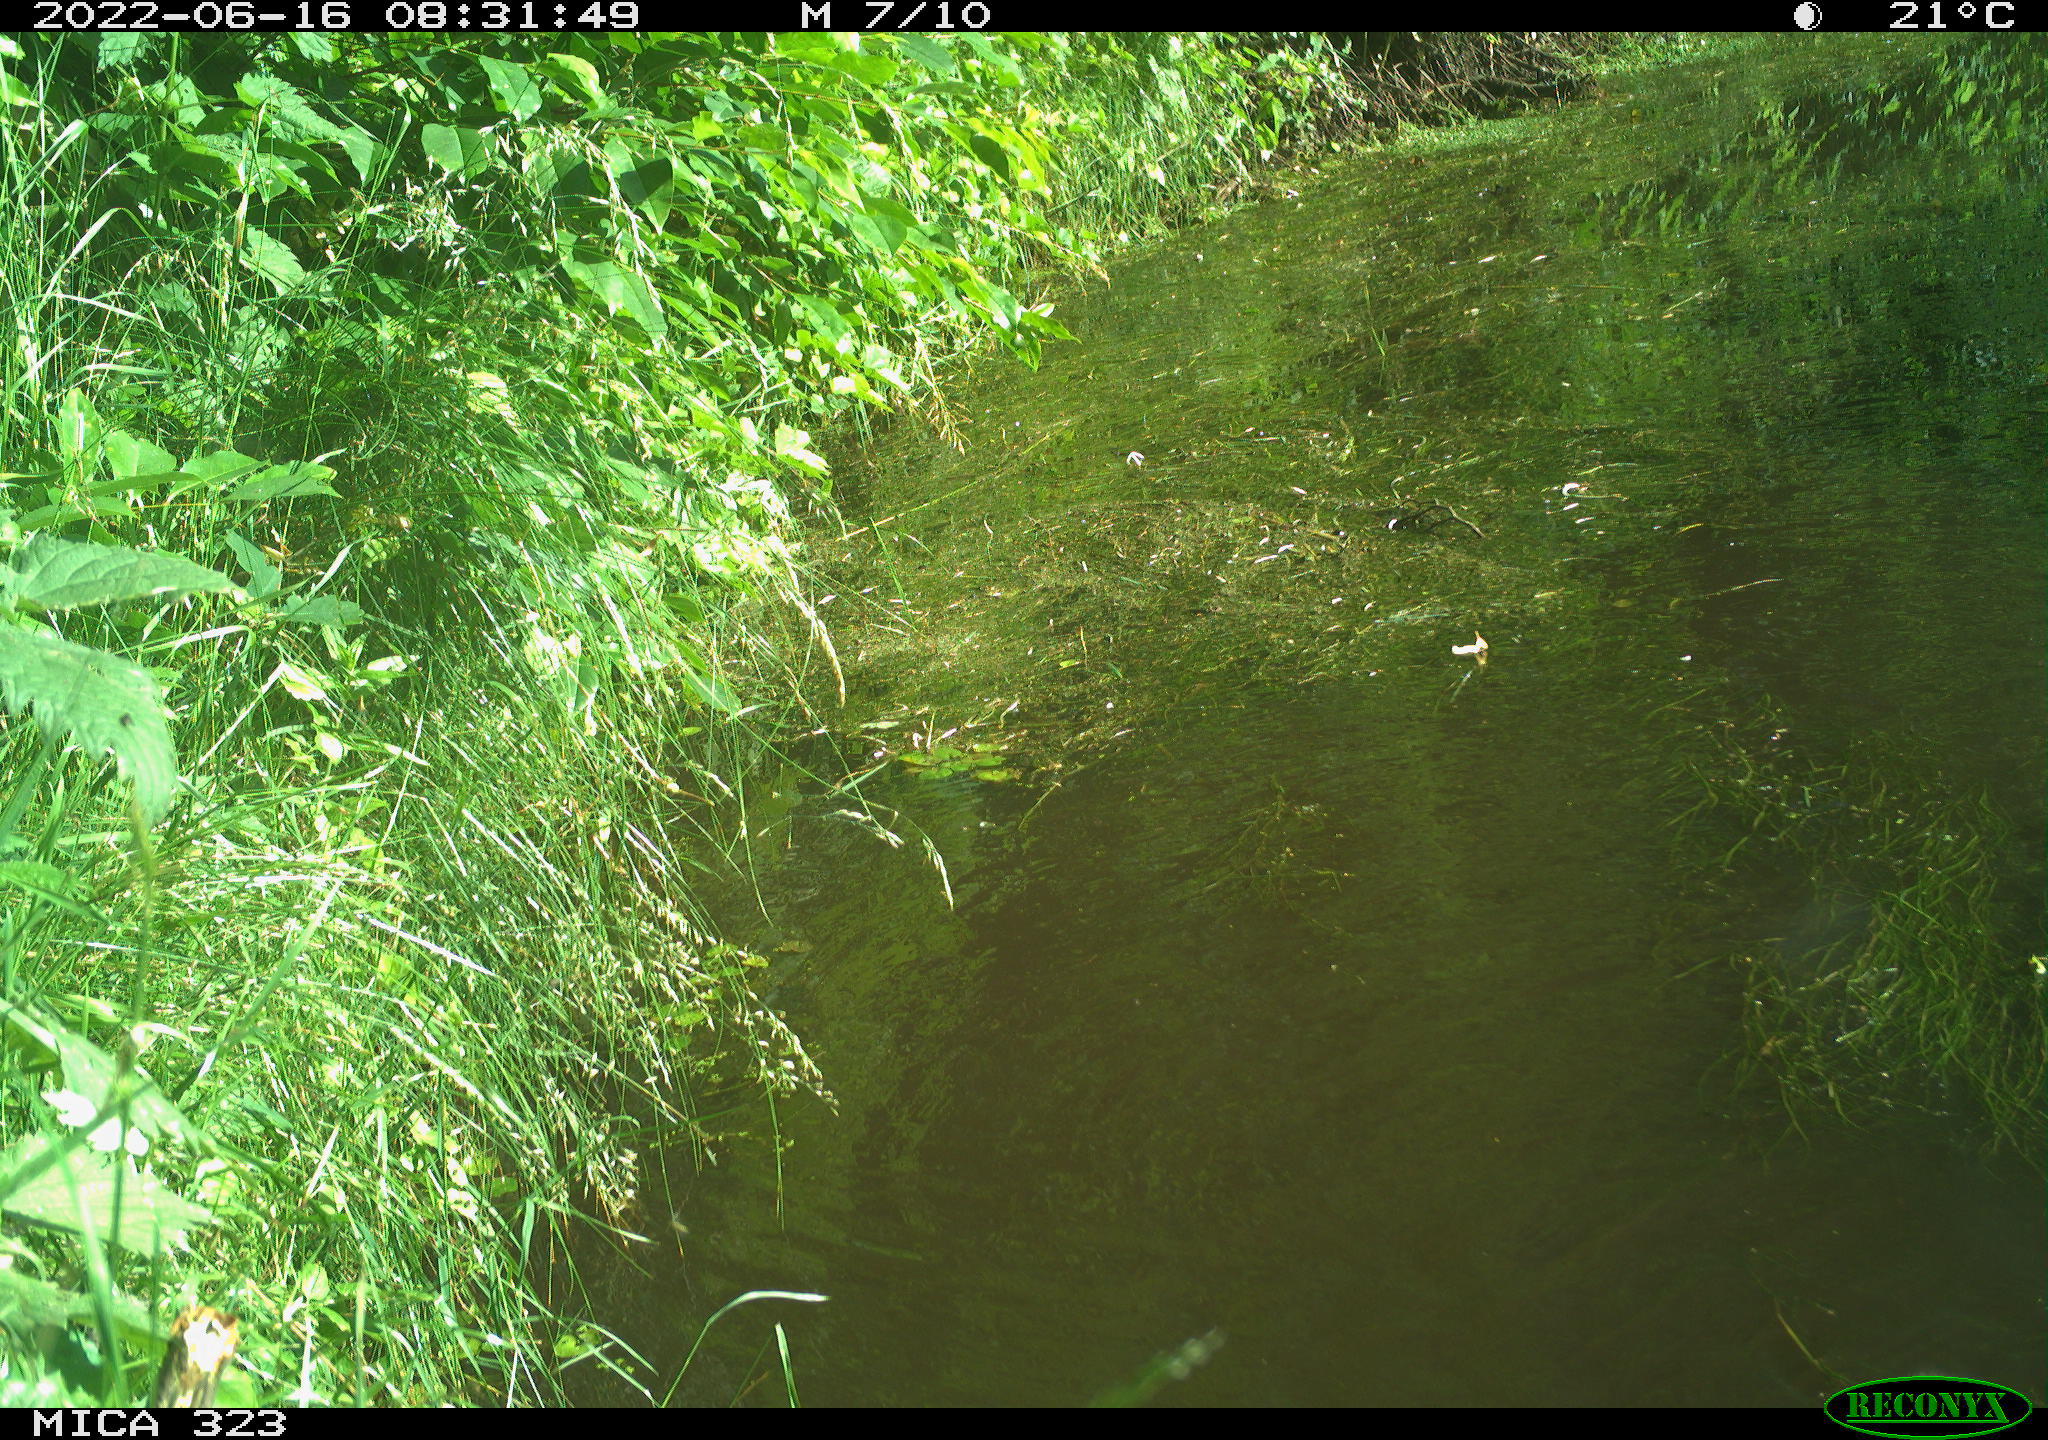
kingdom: Animalia
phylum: Chordata
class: Aves
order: Anseriformes
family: Anatidae
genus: Anas
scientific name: Anas
